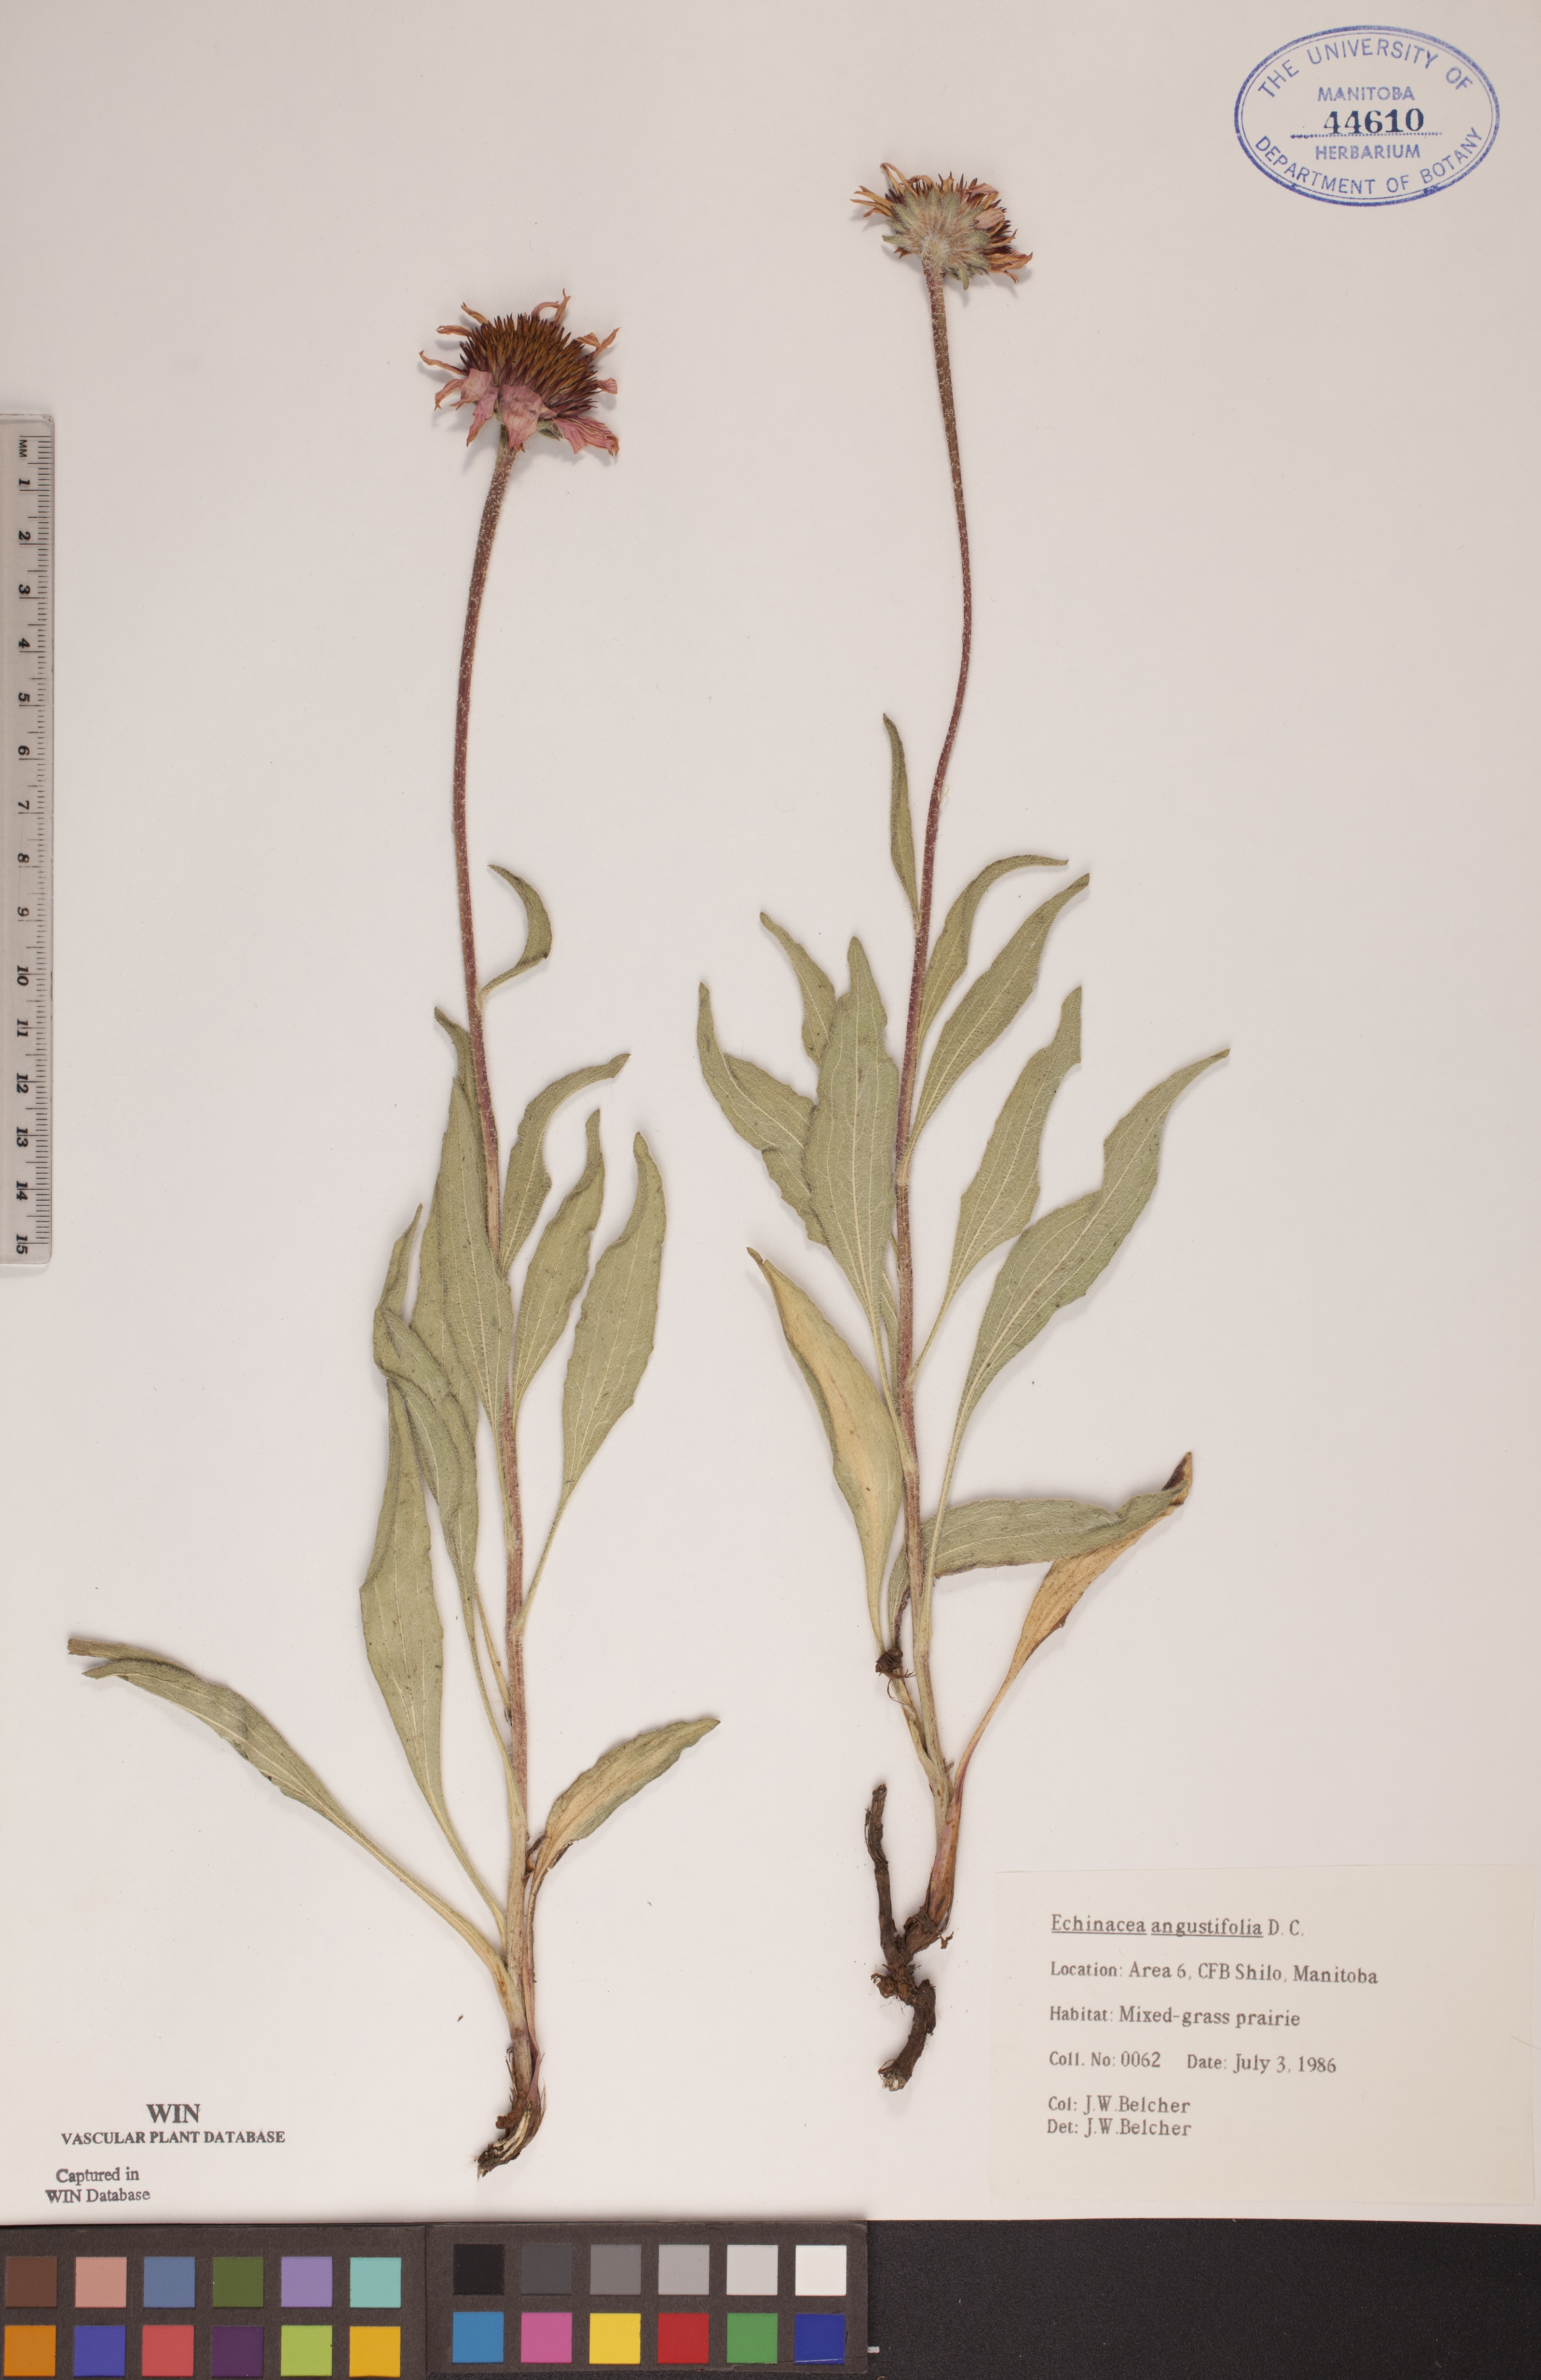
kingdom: Plantae
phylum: Tracheophyta
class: Magnoliopsida
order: Asterales
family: Asteraceae
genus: Echinacea
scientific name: Echinacea angustifolia
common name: Black-sampson echinacea
